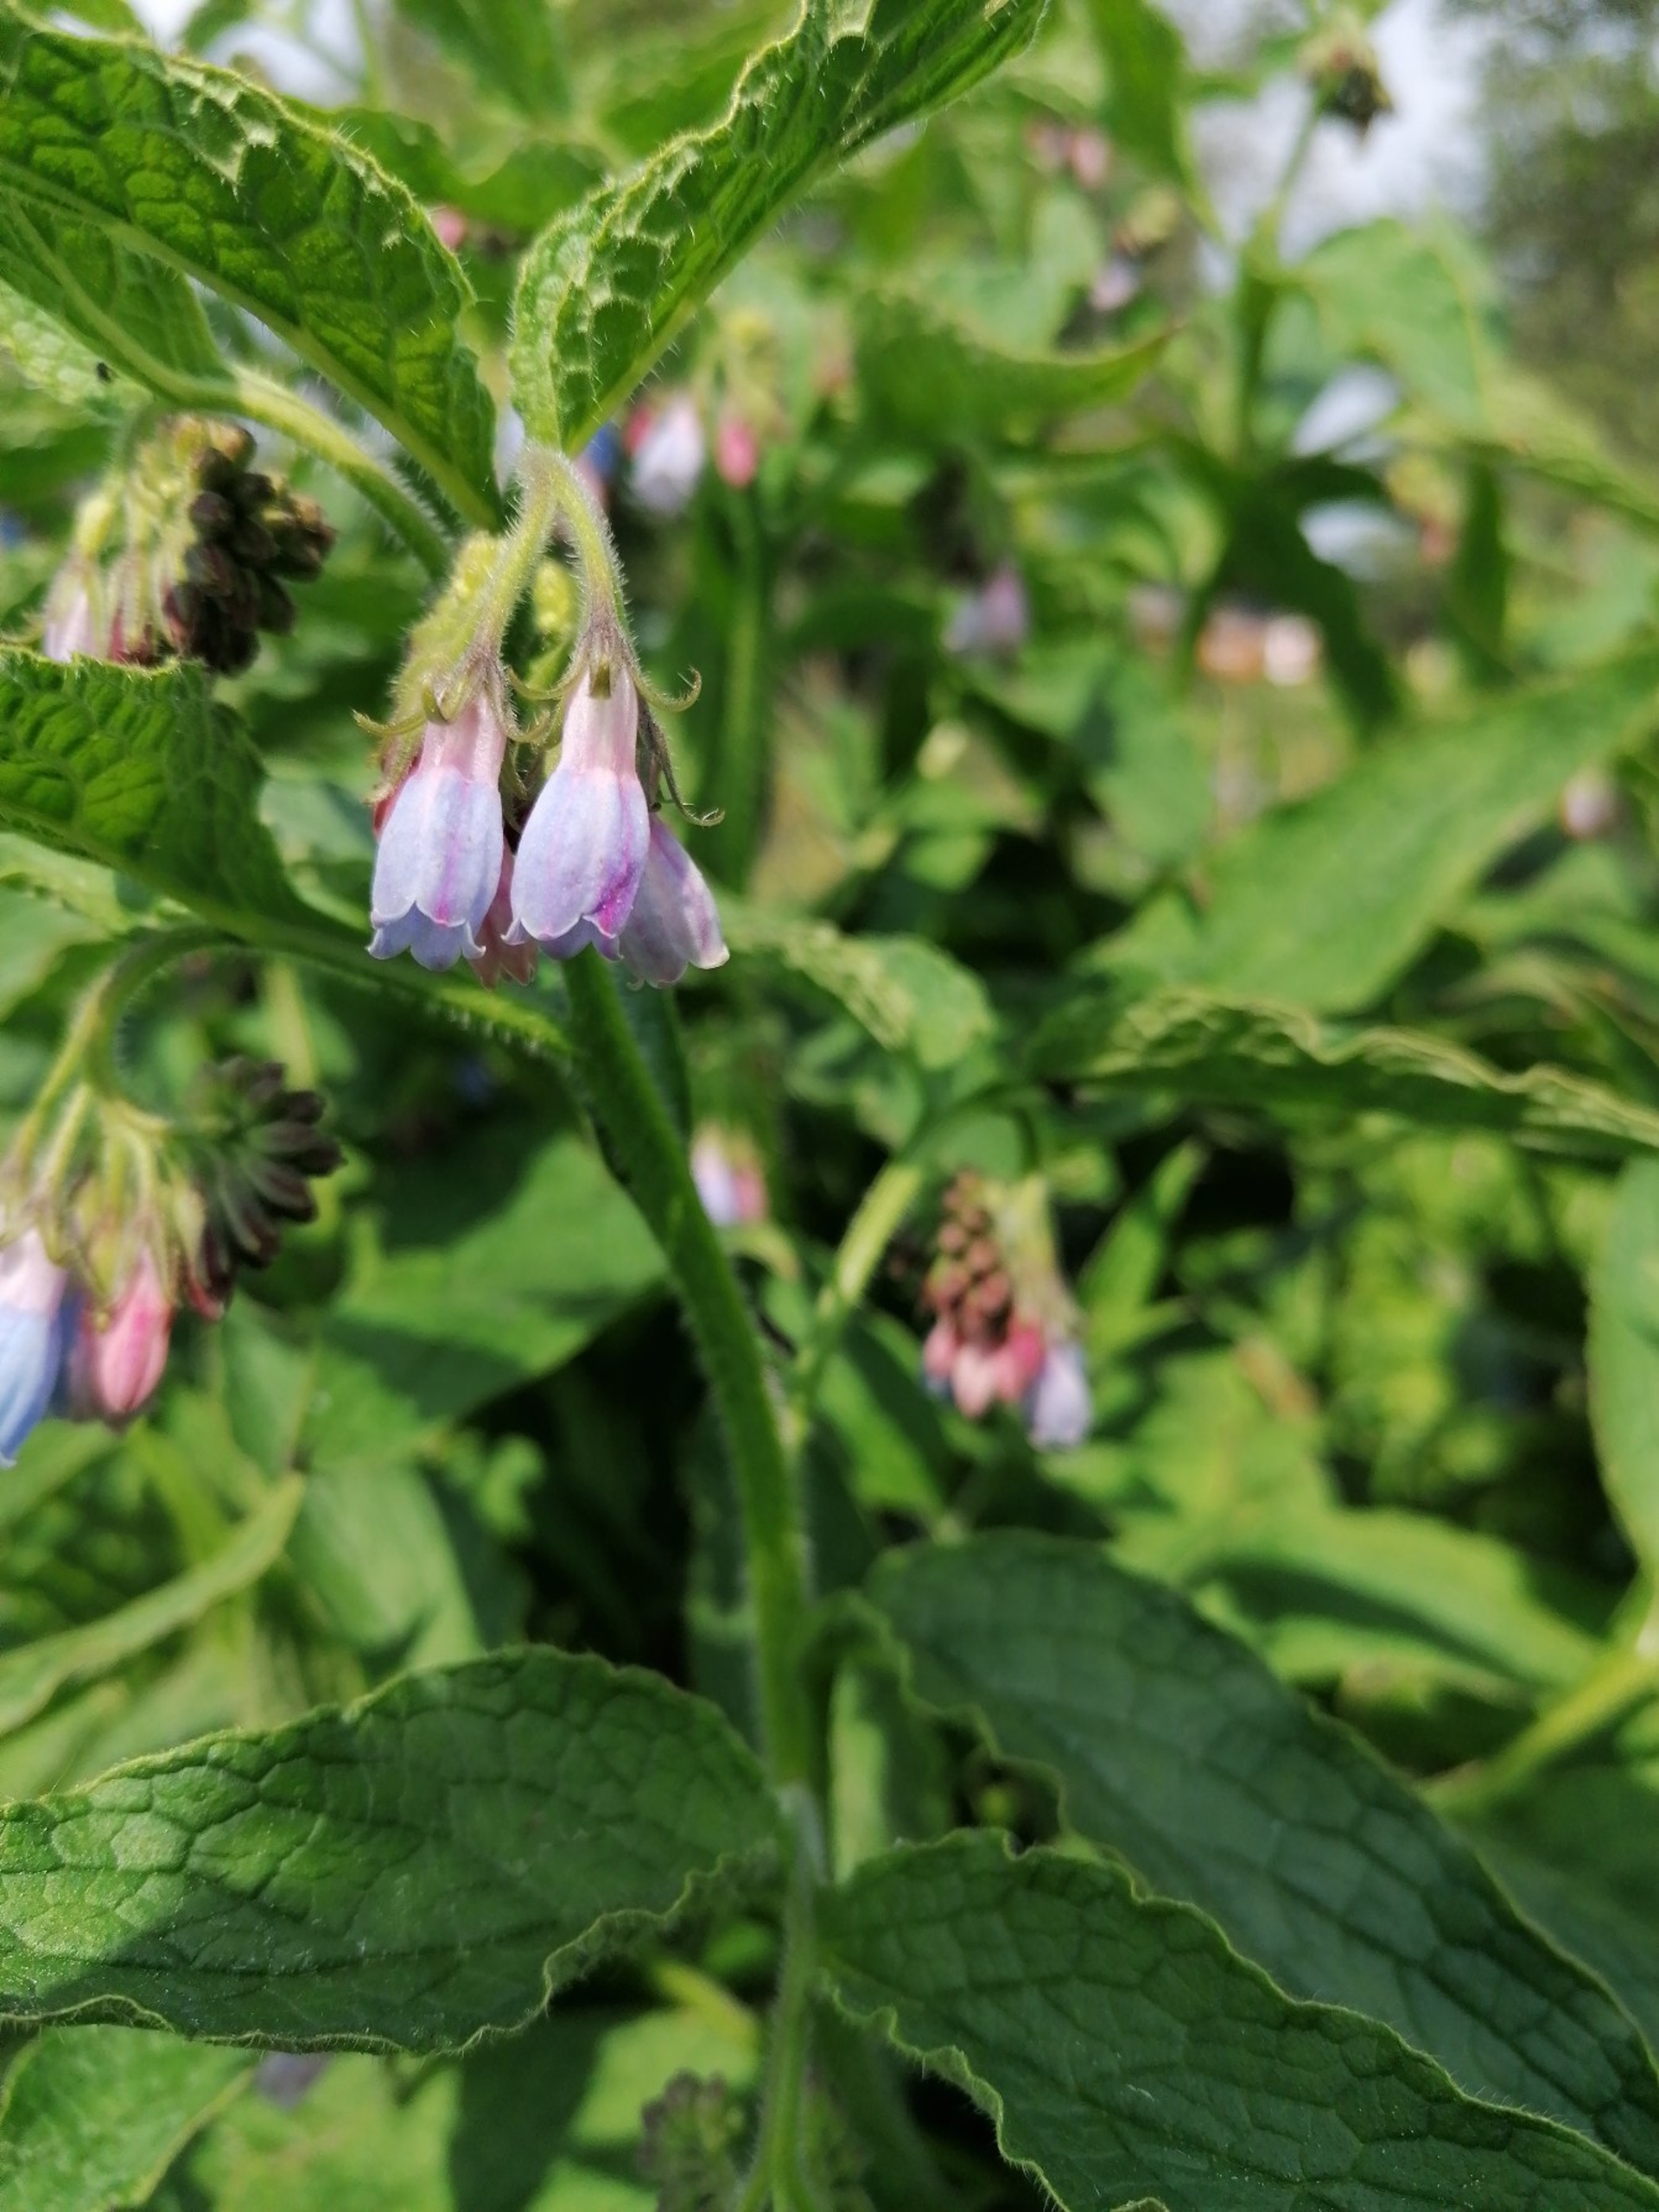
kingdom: Plantae
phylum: Tracheophyta
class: Magnoliopsida
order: Boraginales
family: Boraginaceae
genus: Symphytum
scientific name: Symphytum uplandicum
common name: Foder-kulsukker
